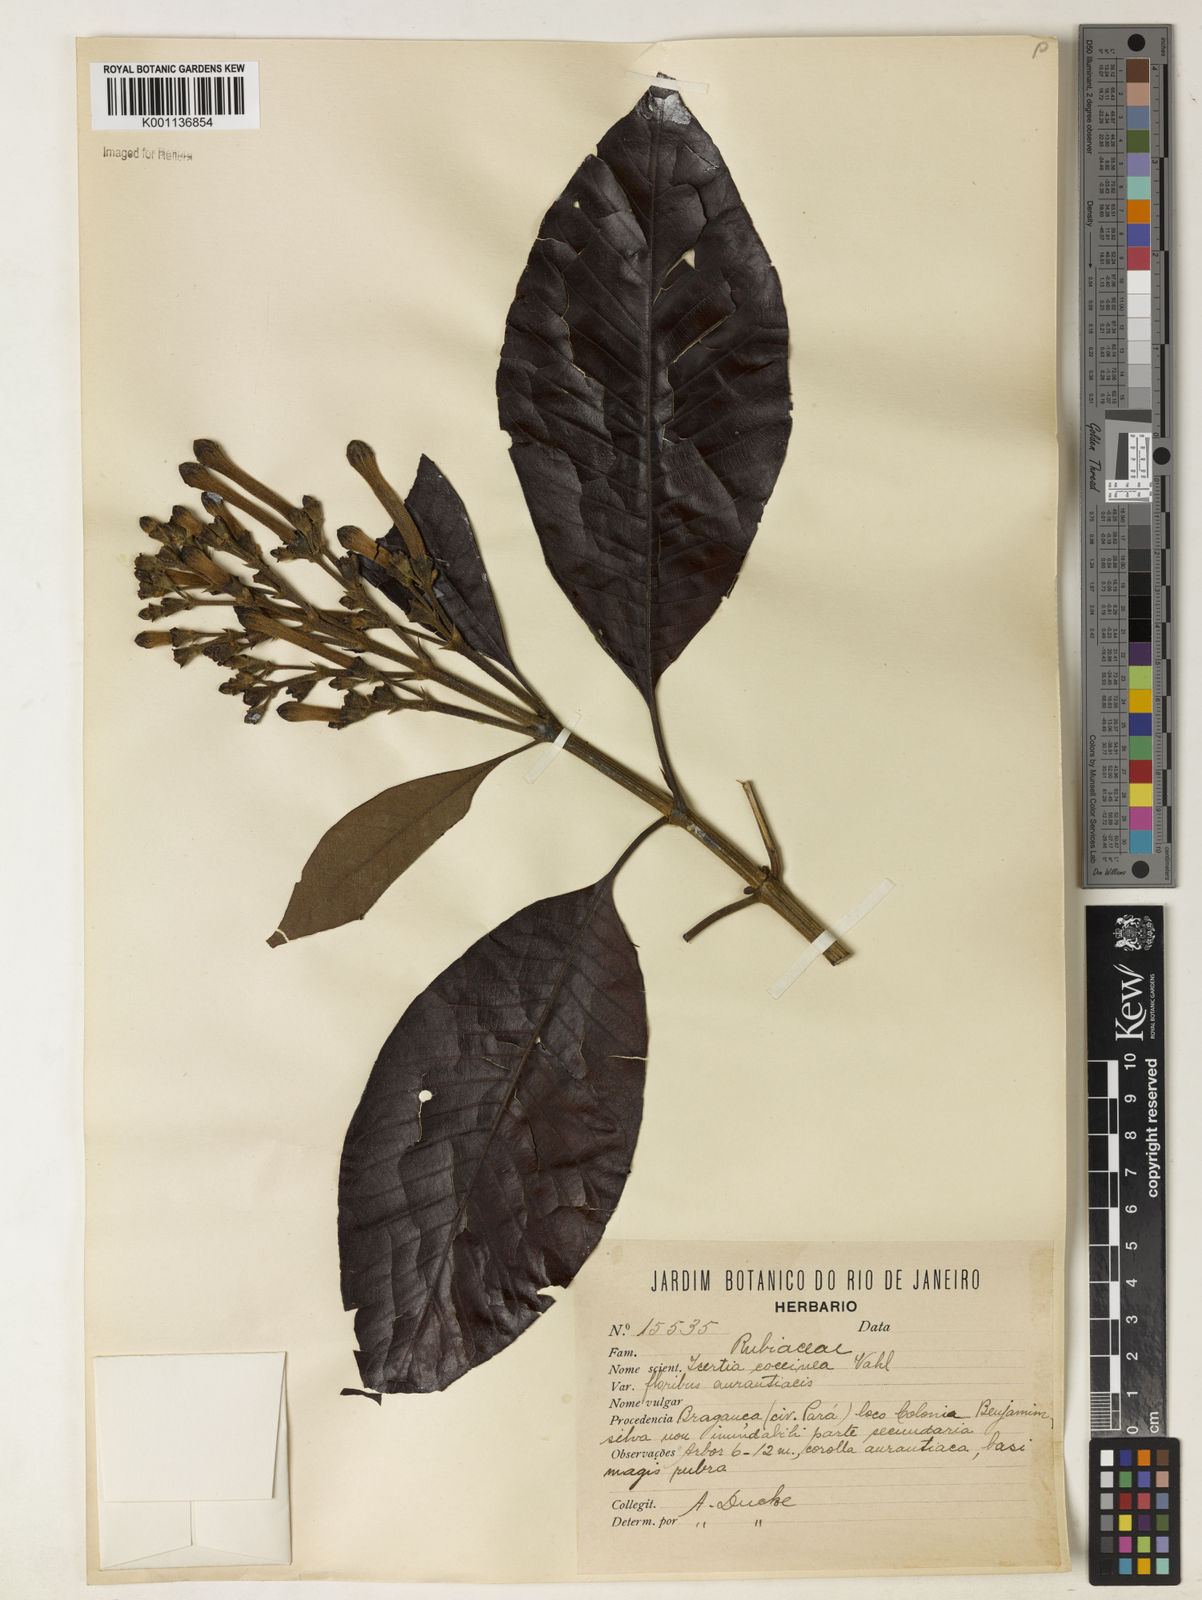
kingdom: Plantae
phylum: Tracheophyta
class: Magnoliopsida
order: Gentianales
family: Rubiaceae
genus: Isertia
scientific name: Isertia coccinea
